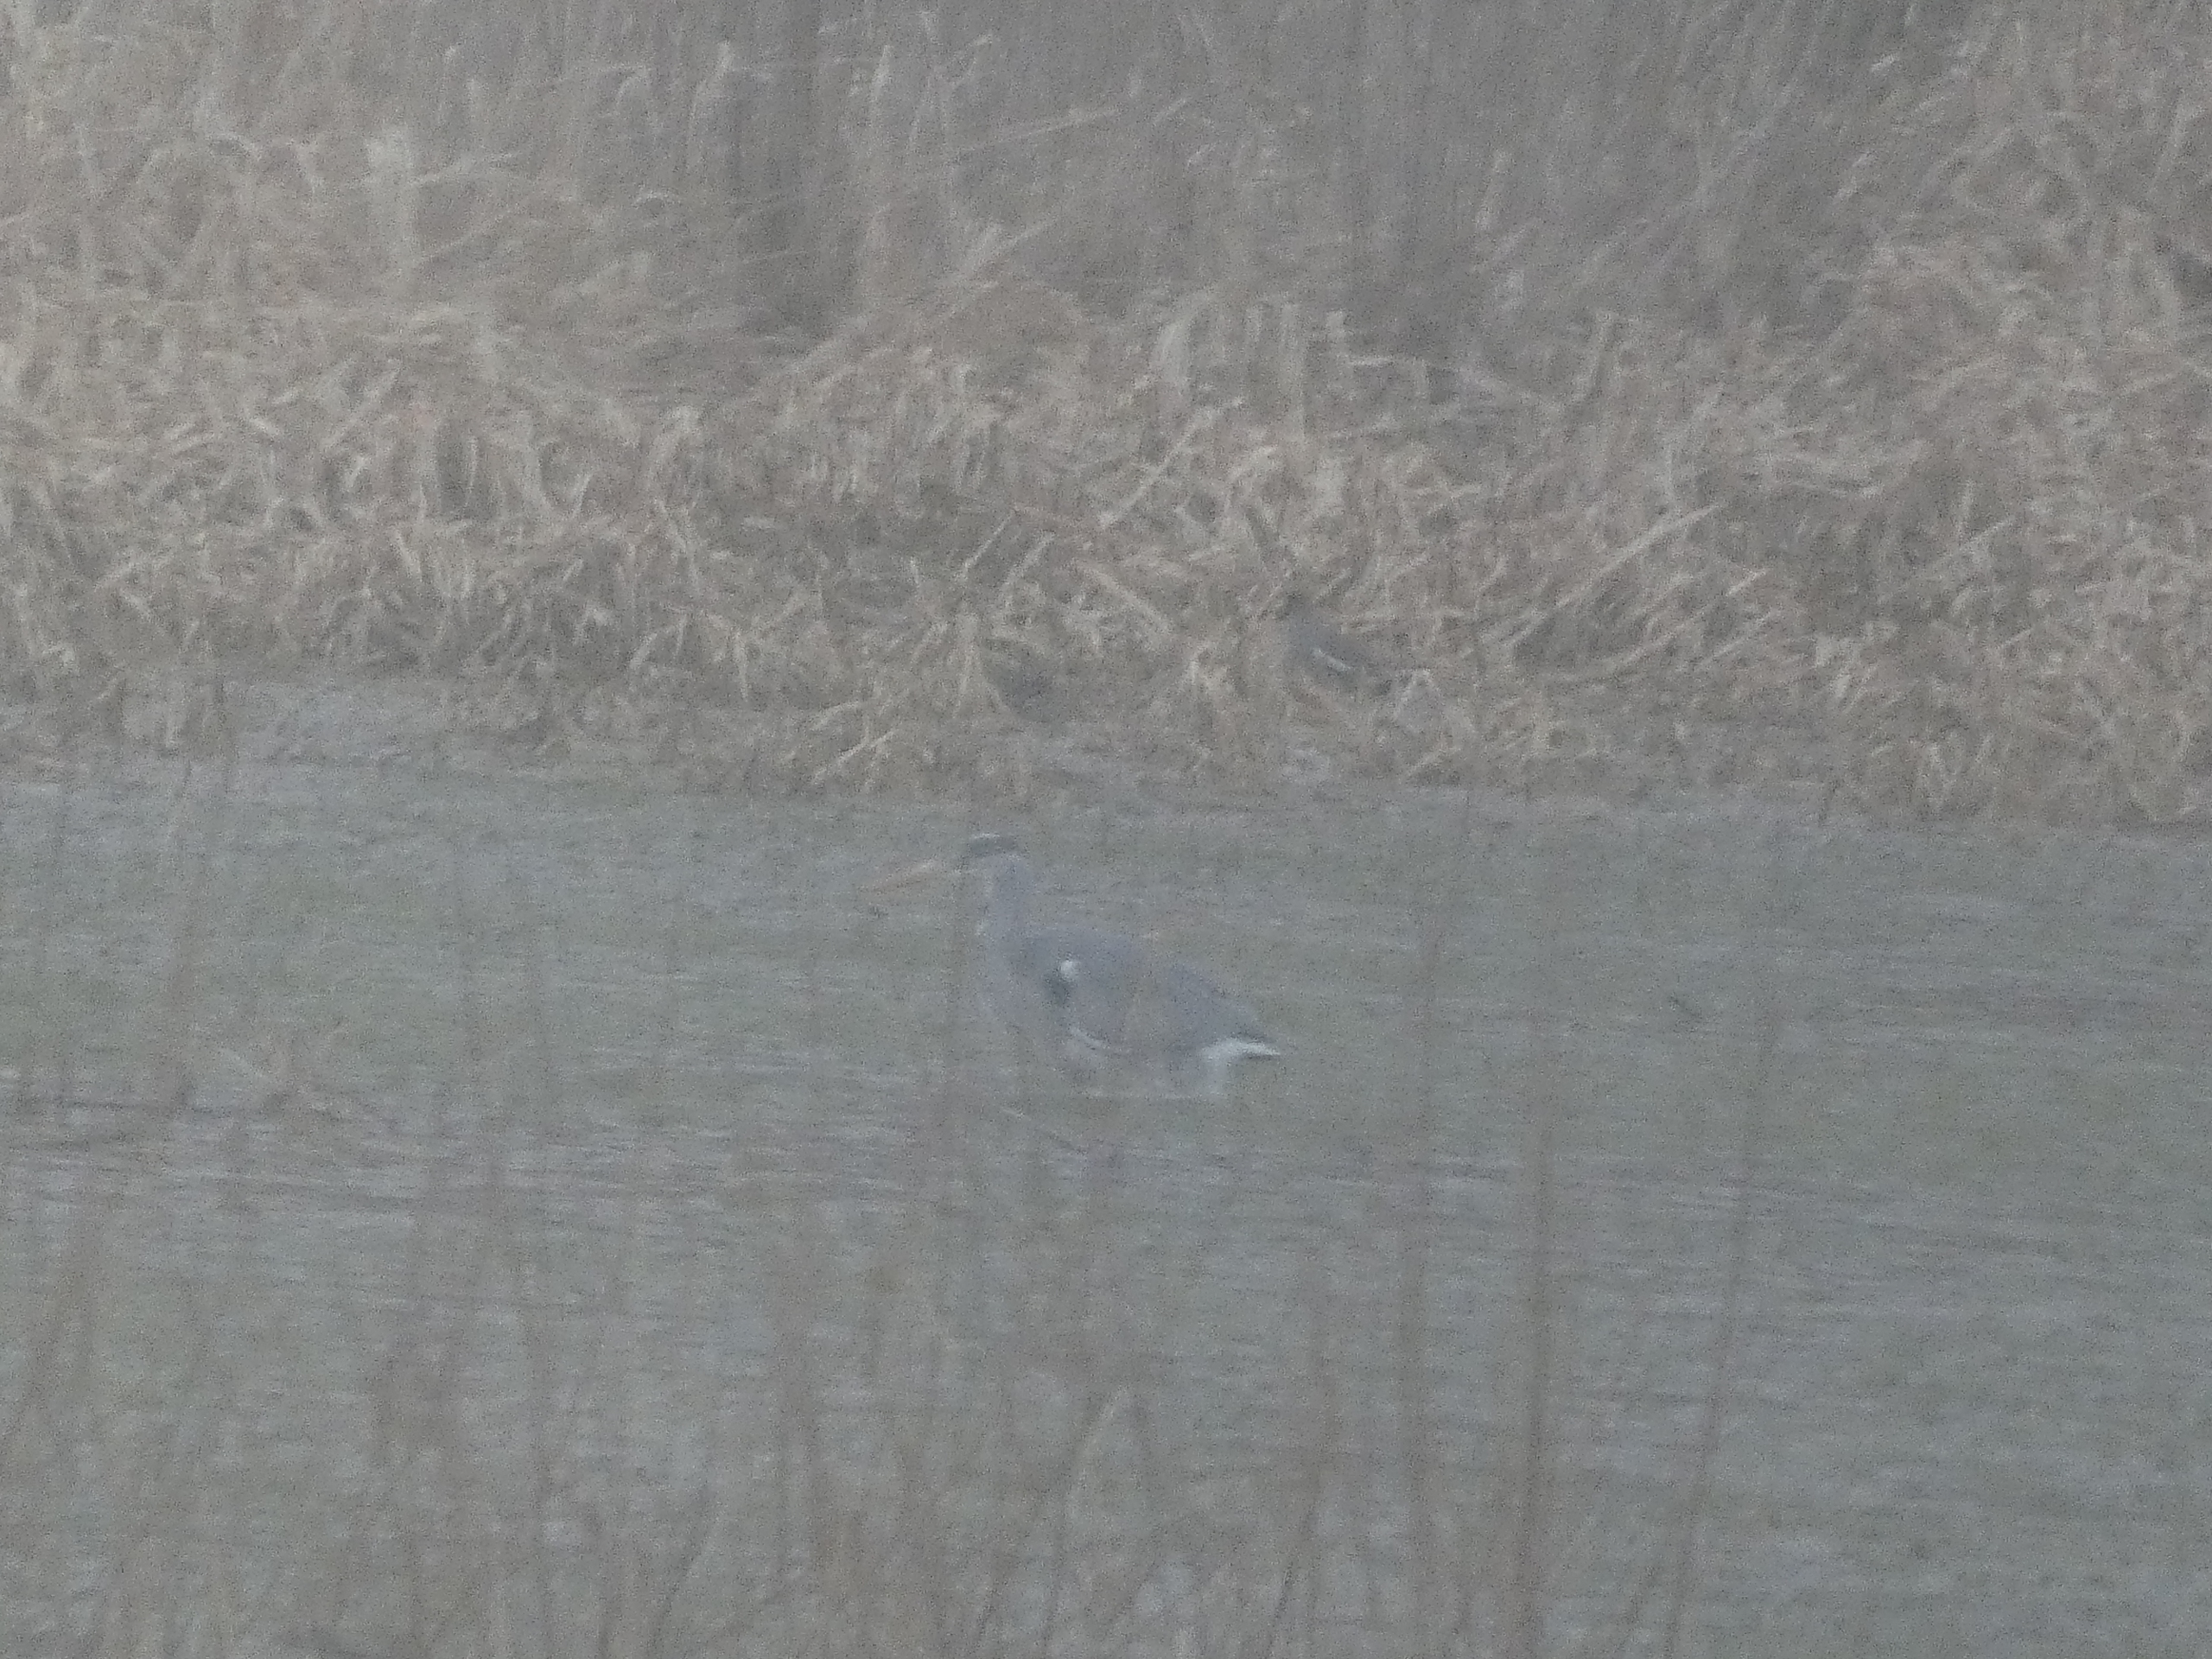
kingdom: Animalia
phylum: Chordata
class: Aves
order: Pelecaniformes
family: Ardeidae
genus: Ardea
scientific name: Ardea cinerea
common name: Fiskehejre
